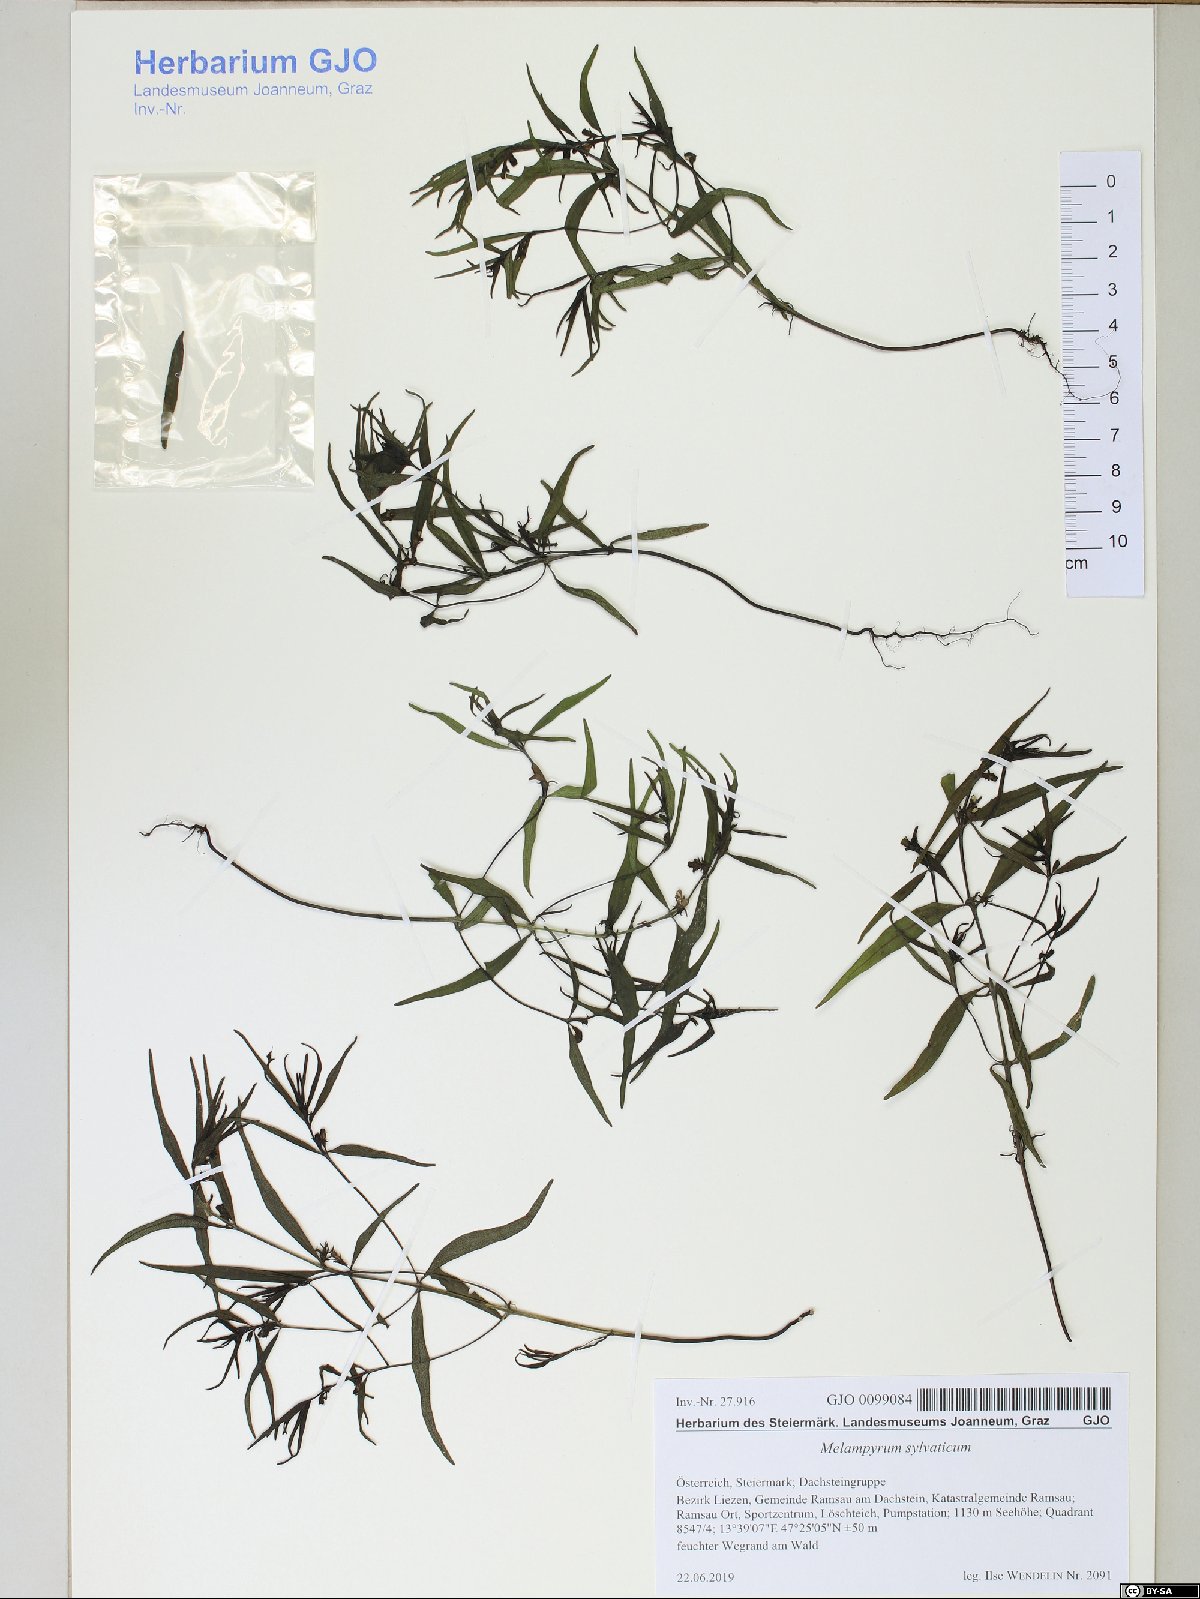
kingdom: Plantae
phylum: Tracheophyta
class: Magnoliopsida
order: Lamiales
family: Orobanchaceae
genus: Melampyrum
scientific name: Melampyrum sylvaticum
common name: Small cow-wheat
